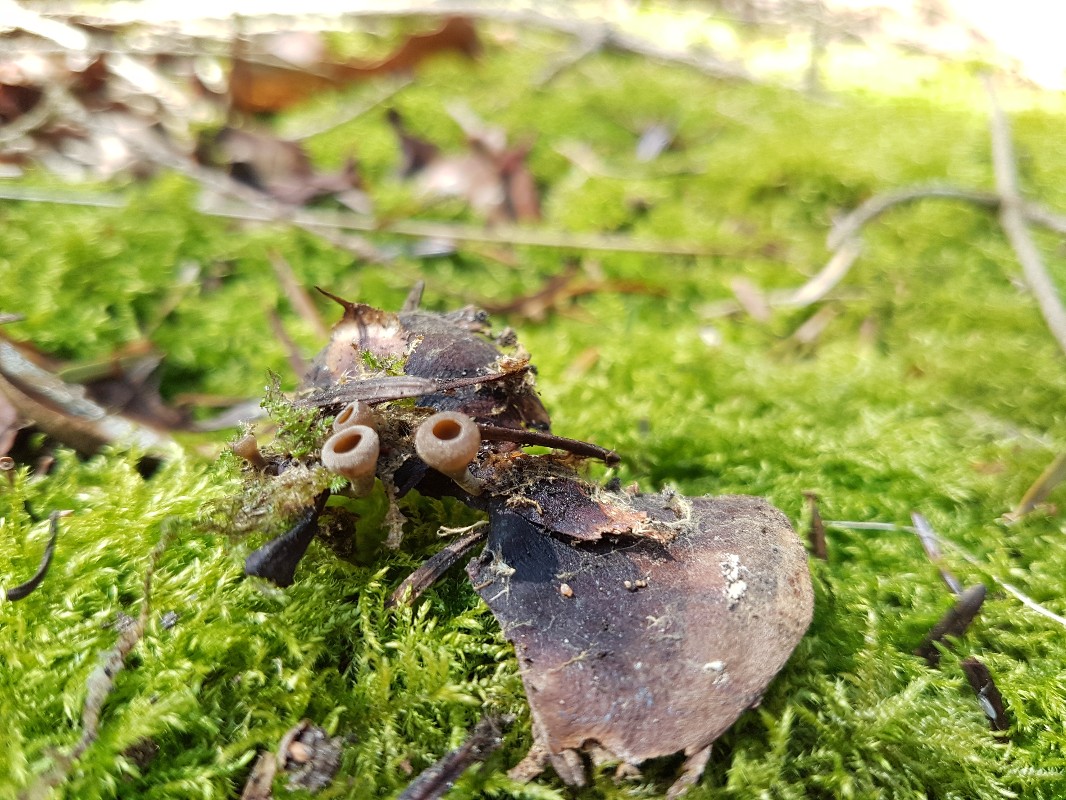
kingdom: Fungi
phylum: Ascomycota
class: Leotiomycetes
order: Helotiales
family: Sclerotiniaceae
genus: Ciboria
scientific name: Ciboria rufofusca
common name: kogleskæl-knoldskive
